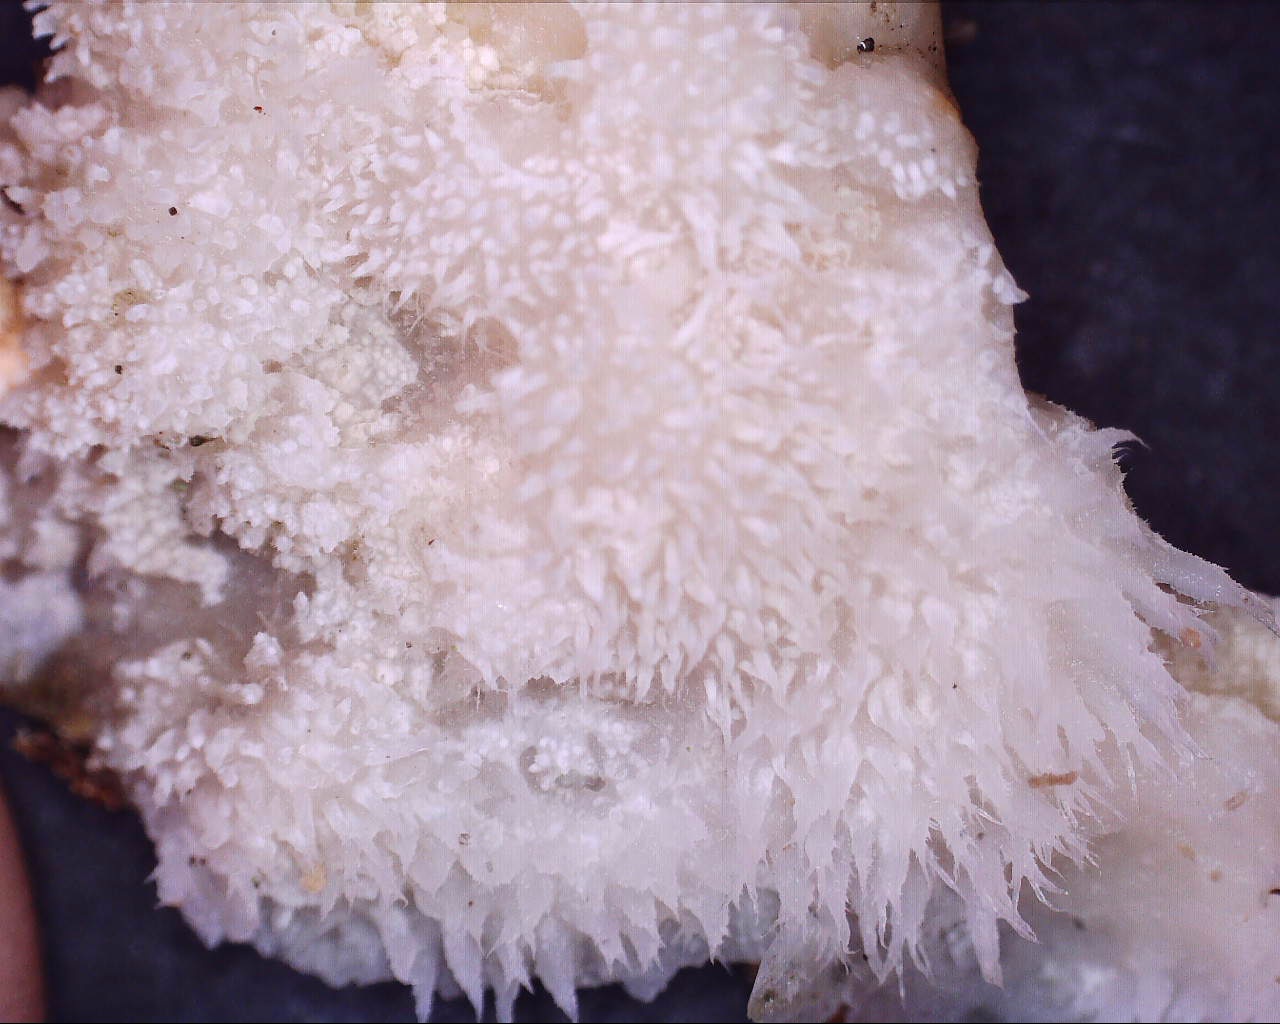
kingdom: Fungi
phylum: Basidiomycota
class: Agaricomycetes
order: Corticiales
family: Corticiaceae
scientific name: Corticiaceae
